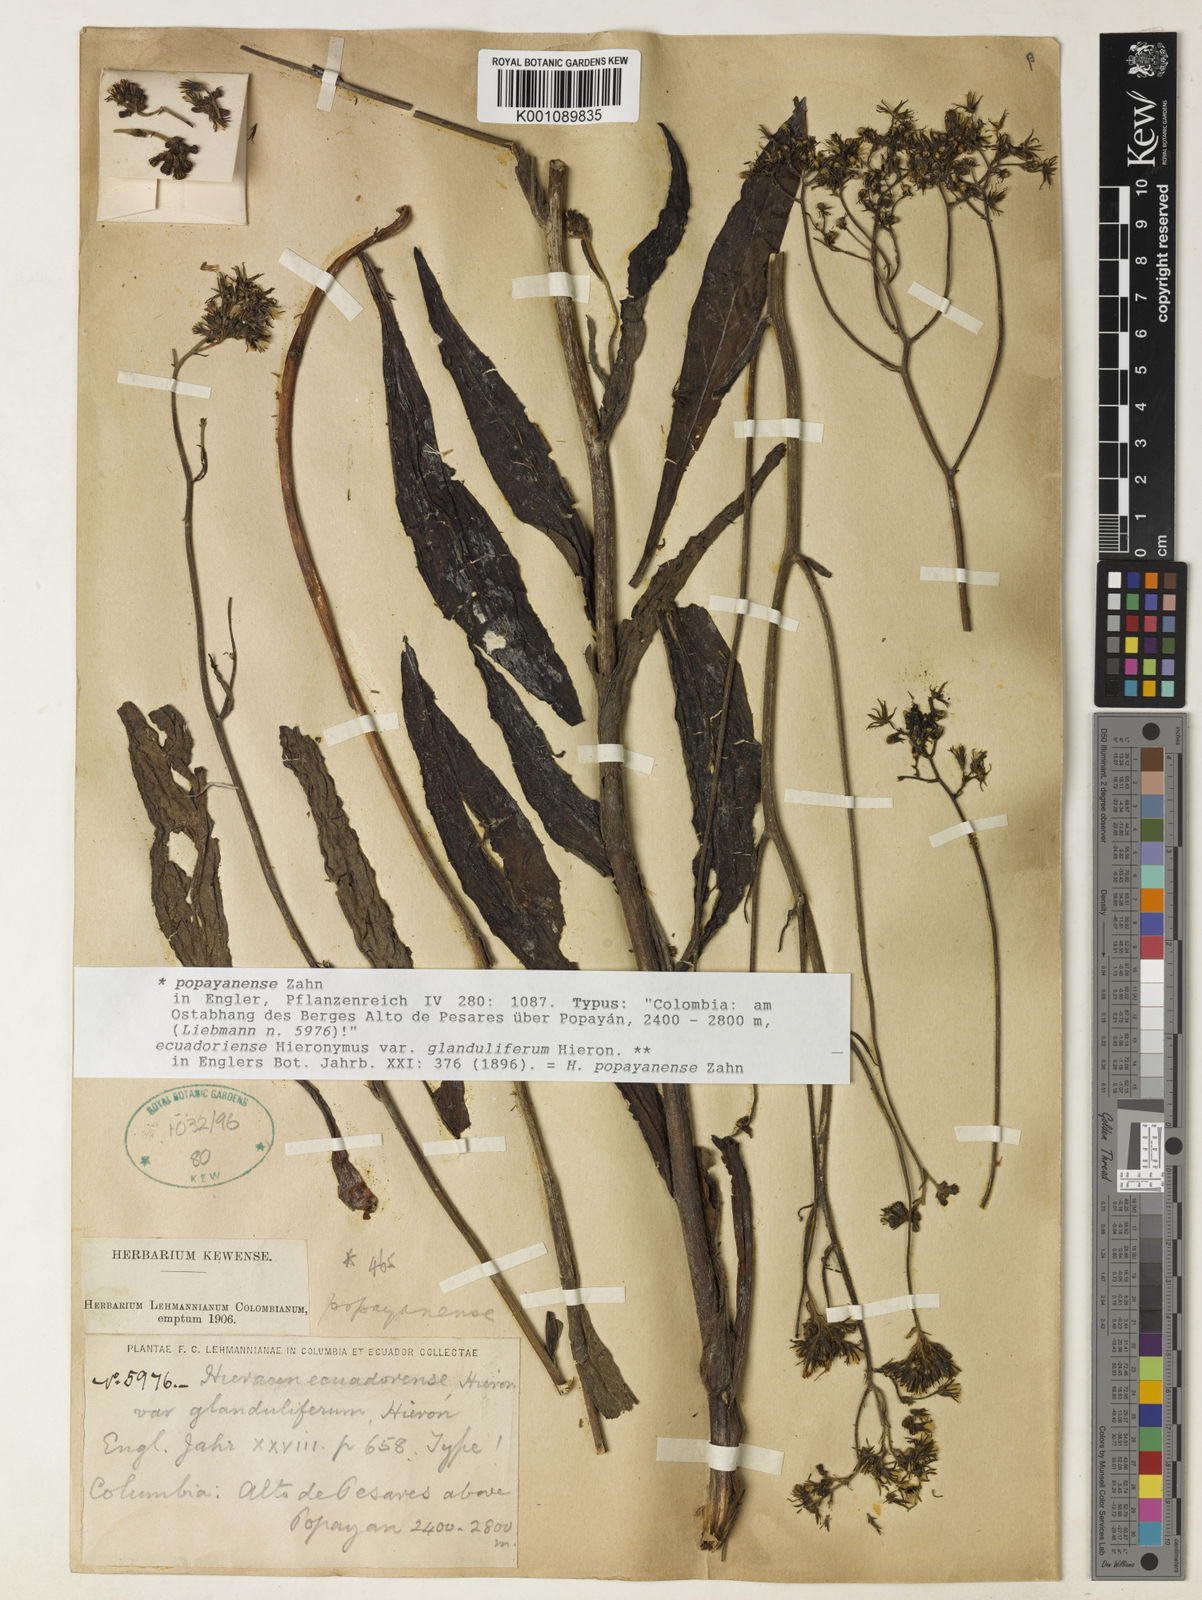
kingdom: Plantae
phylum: Tracheophyta
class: Magnoliopsida
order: Asterales
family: Asteraceae
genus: Hieracium
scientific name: Hieracium popayanense
